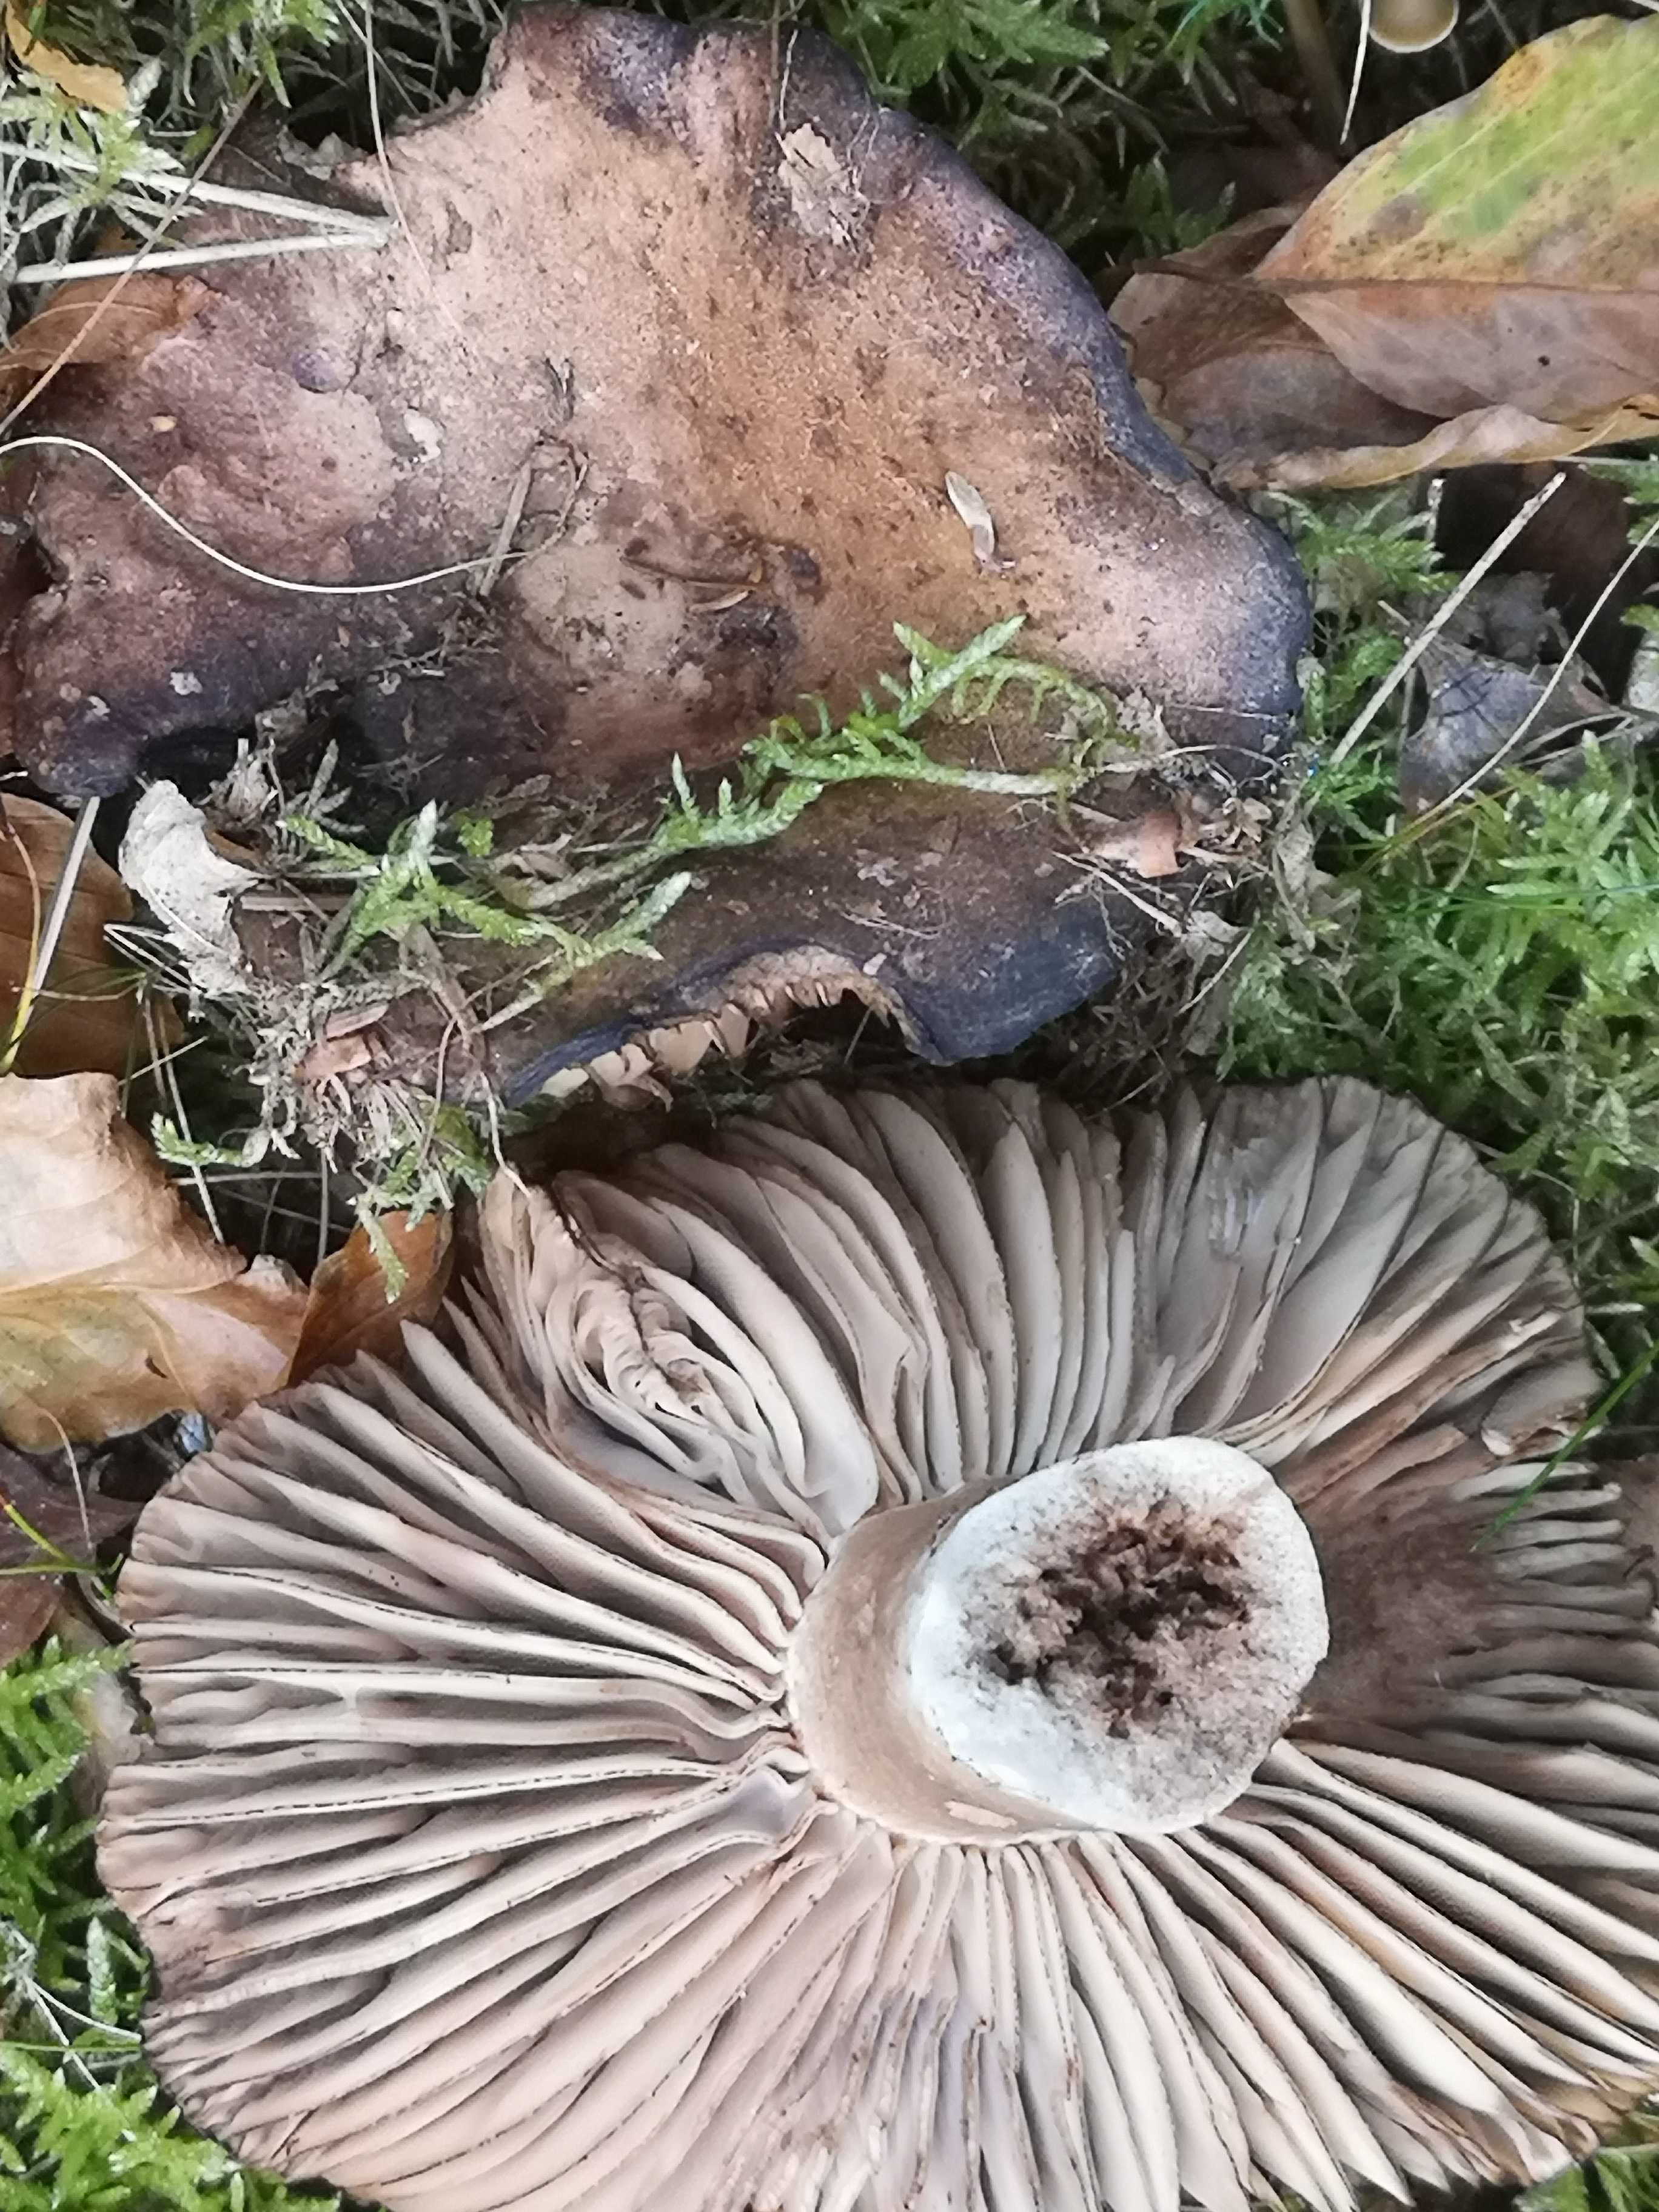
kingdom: Fungi
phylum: Basidiomycota
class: Agaricomycetes
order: Russulales
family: Russulaceae
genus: Russula
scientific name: Russula adusta
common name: sværtende skørhat
